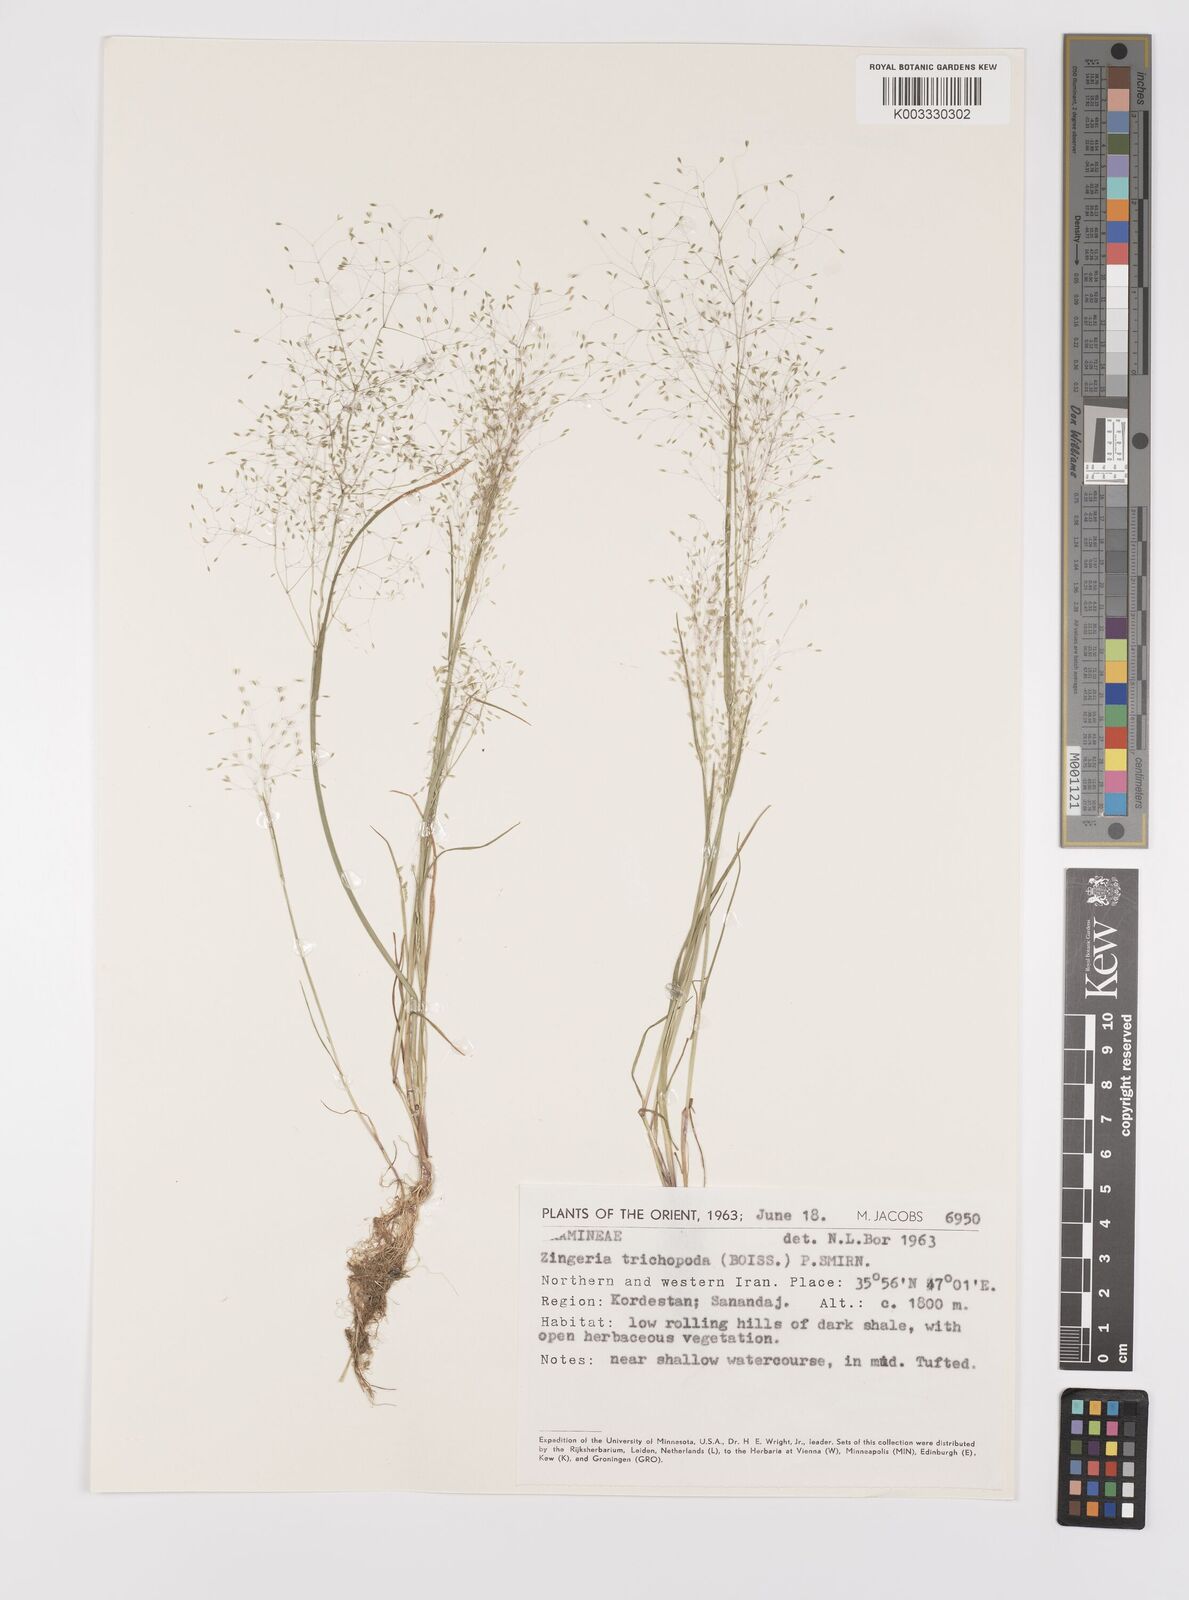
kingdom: Plantae
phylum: Tracheophyta
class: Liliopsida
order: Poales
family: Poaceae
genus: Colpodium
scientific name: Colpodium trichopodum
